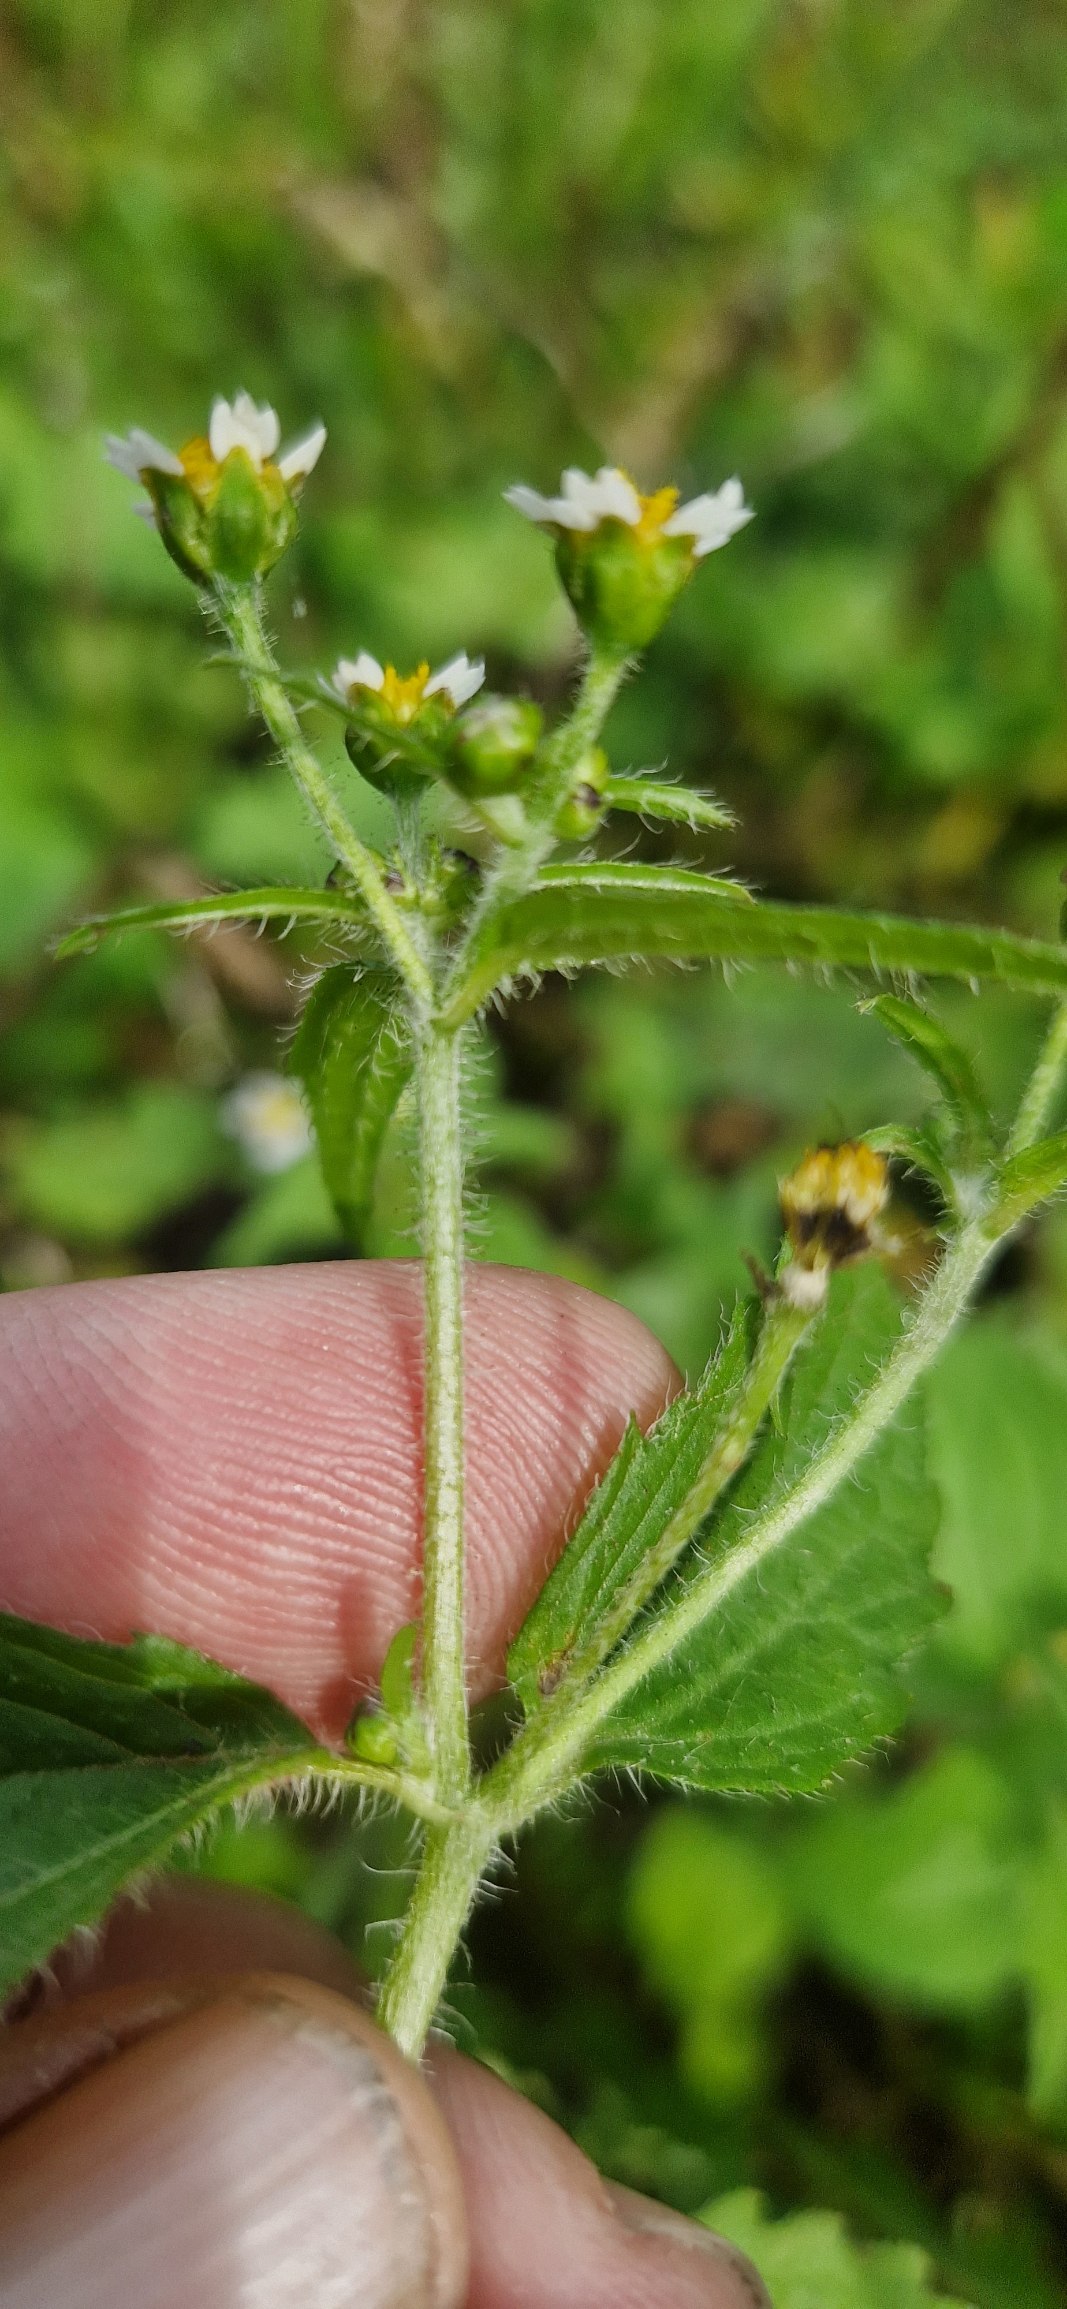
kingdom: Plantae
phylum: Tracheophyta
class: Magnoliopsida
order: Asterales
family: Asteraceae
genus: Galinsoga
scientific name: Galinsoga quadriradiata
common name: Kirtel-kortstråle
